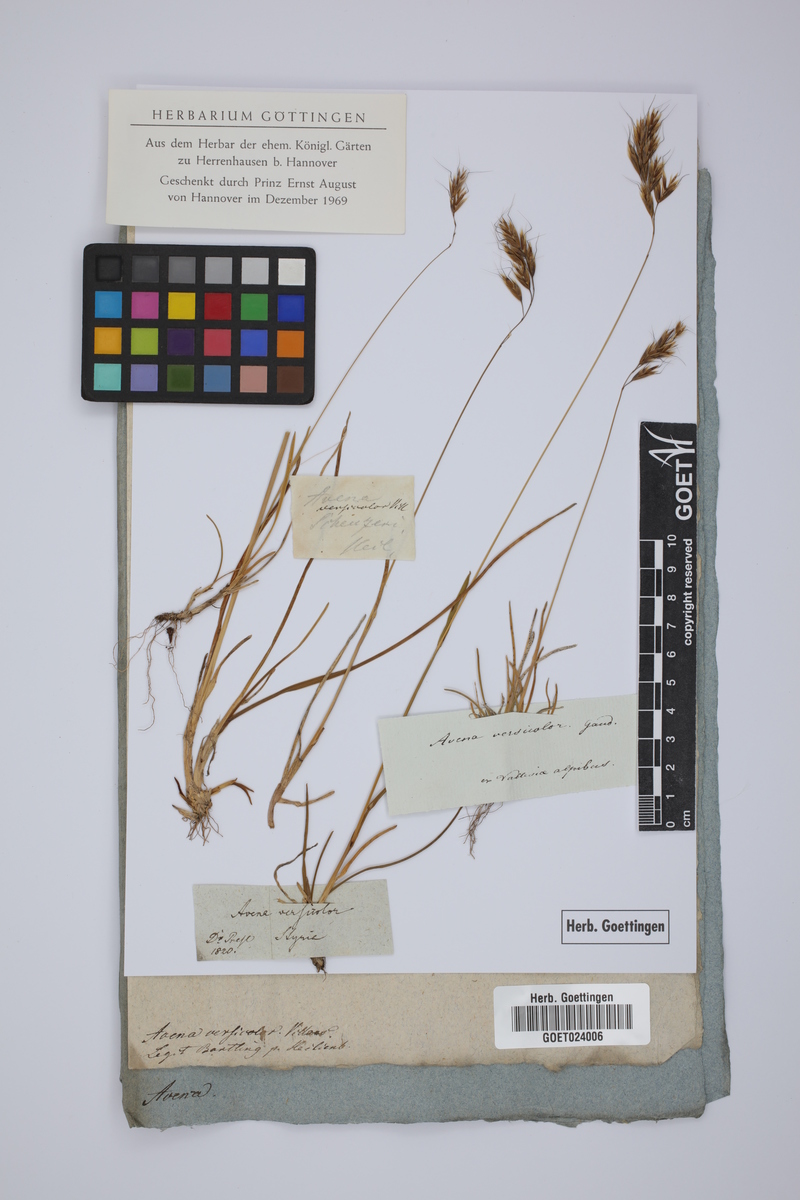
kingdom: Plantae
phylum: Tracheophyta
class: Liliopsida
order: Poales
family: Poaceae
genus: Helictochloa
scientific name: Helictochloa versicolor
